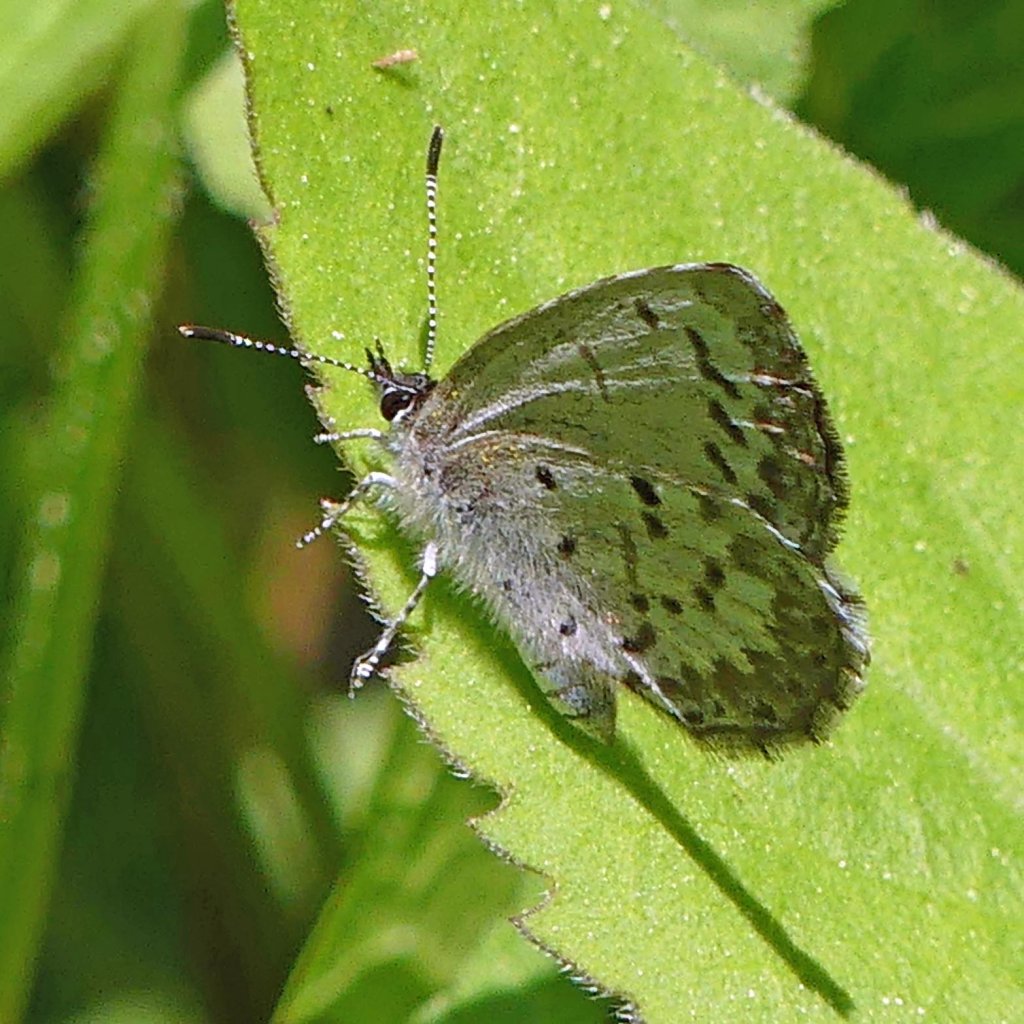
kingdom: Animalia
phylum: Arthropoda
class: Insecta
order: Lepidoptera
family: Lycaenidae
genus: Celastrina
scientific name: Celastrina lucia
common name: Northern Spring Azure
